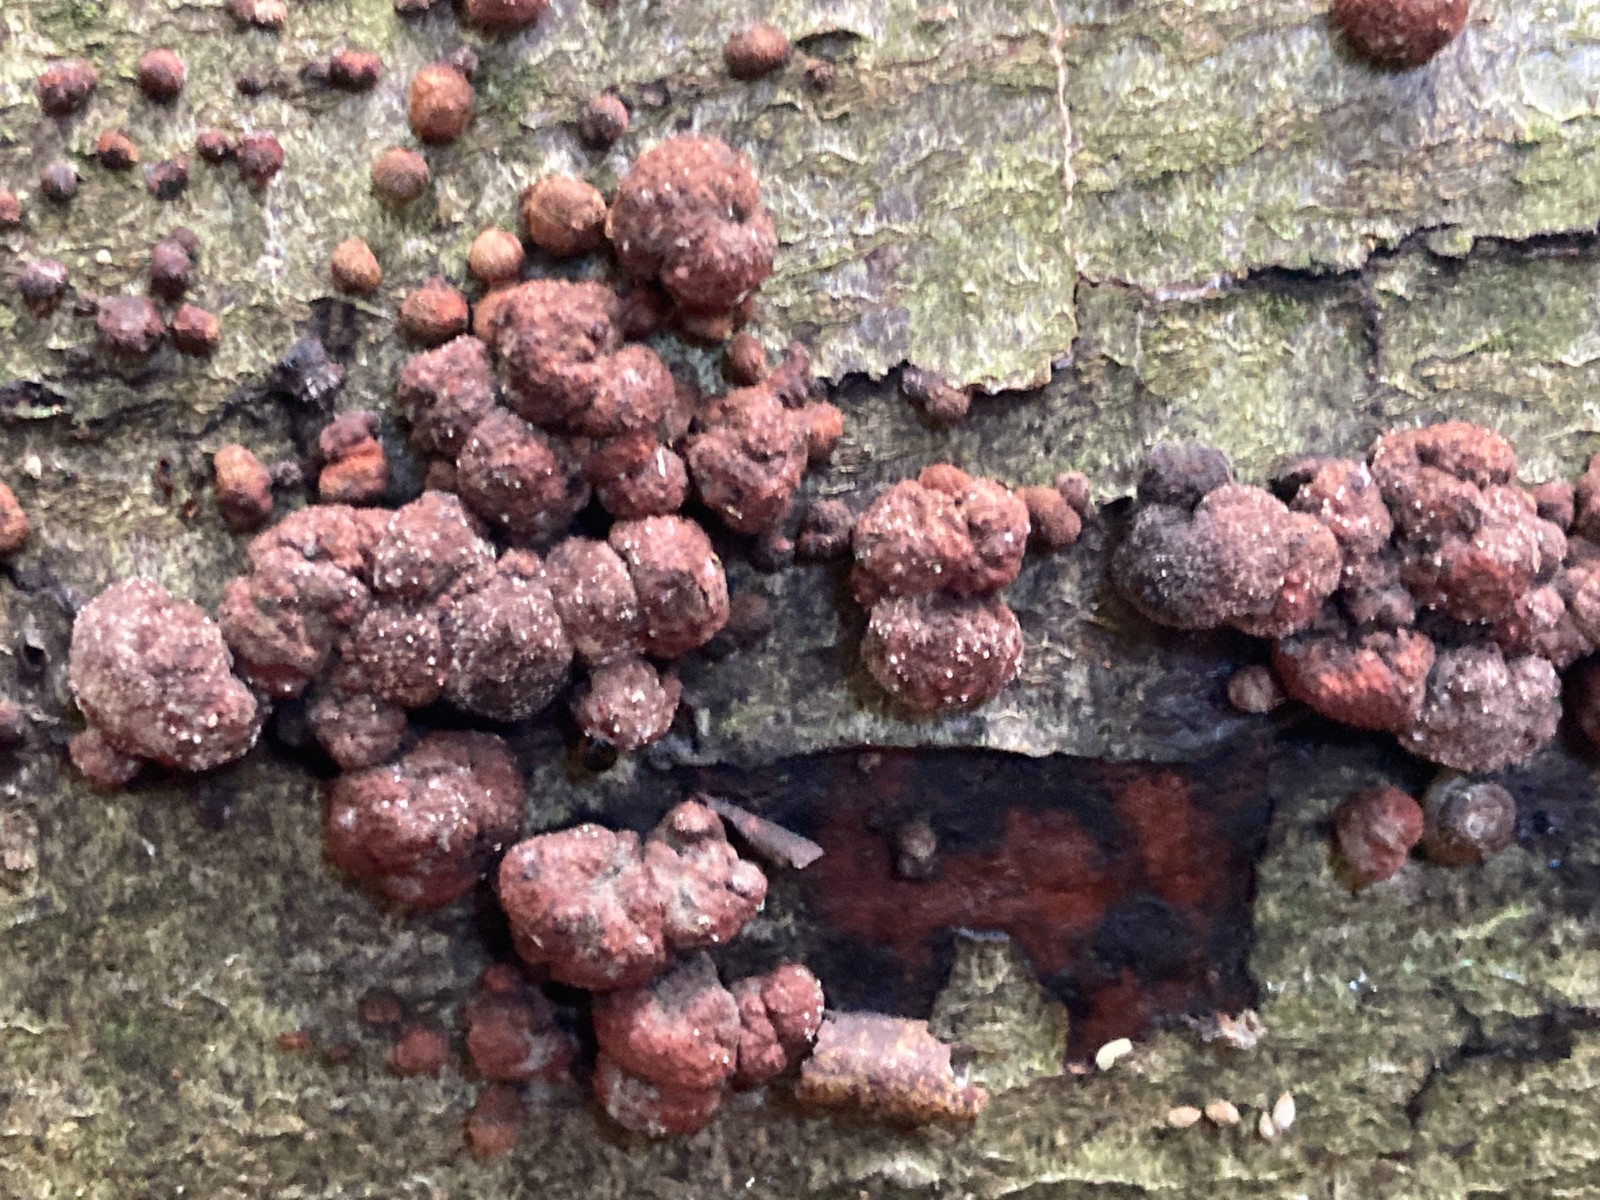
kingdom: Fungi
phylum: Ascomycota
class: Sordariomycetes
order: Xylariales
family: Hypoxylaceae
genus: Hypoxylon
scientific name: Hypoxylon fragiforme
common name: kuljordbær
